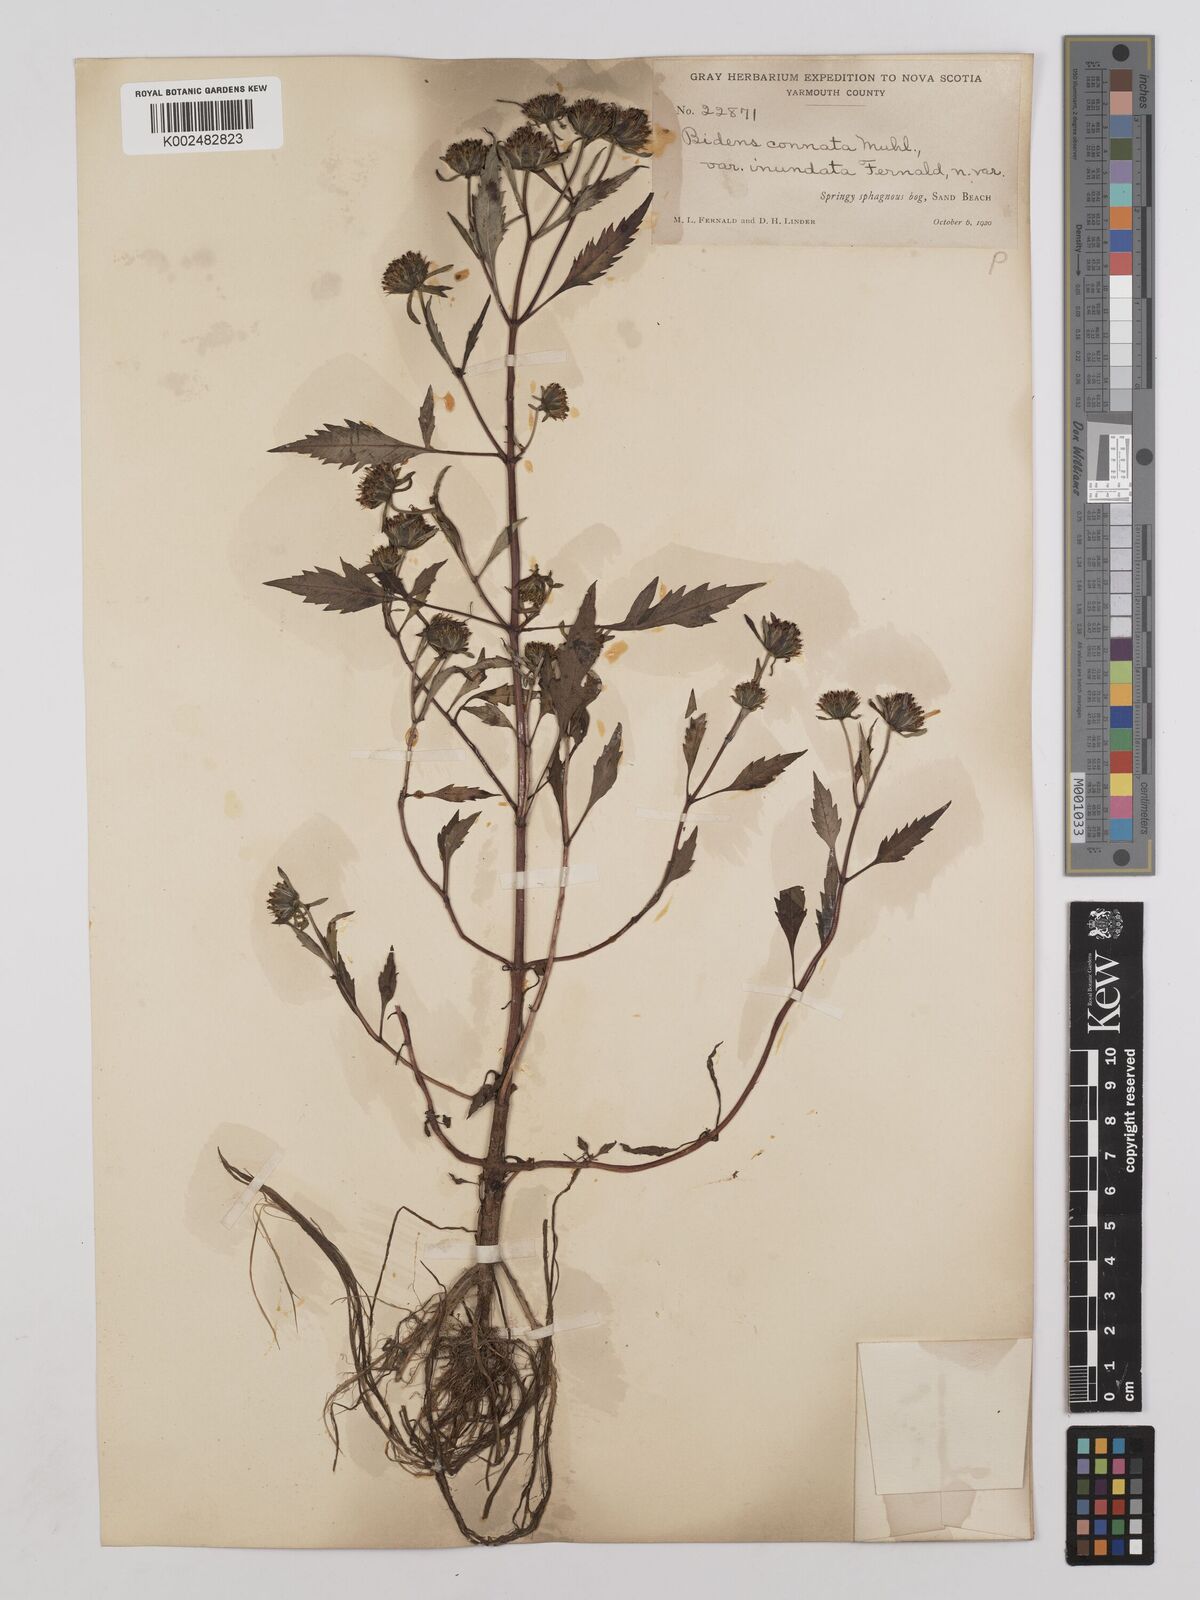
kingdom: Plantae
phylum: Tracheophyta
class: Magnoliopsida
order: Asterales
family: Asteraceae
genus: Bidens
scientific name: Bidens connata
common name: London bur-marigold
